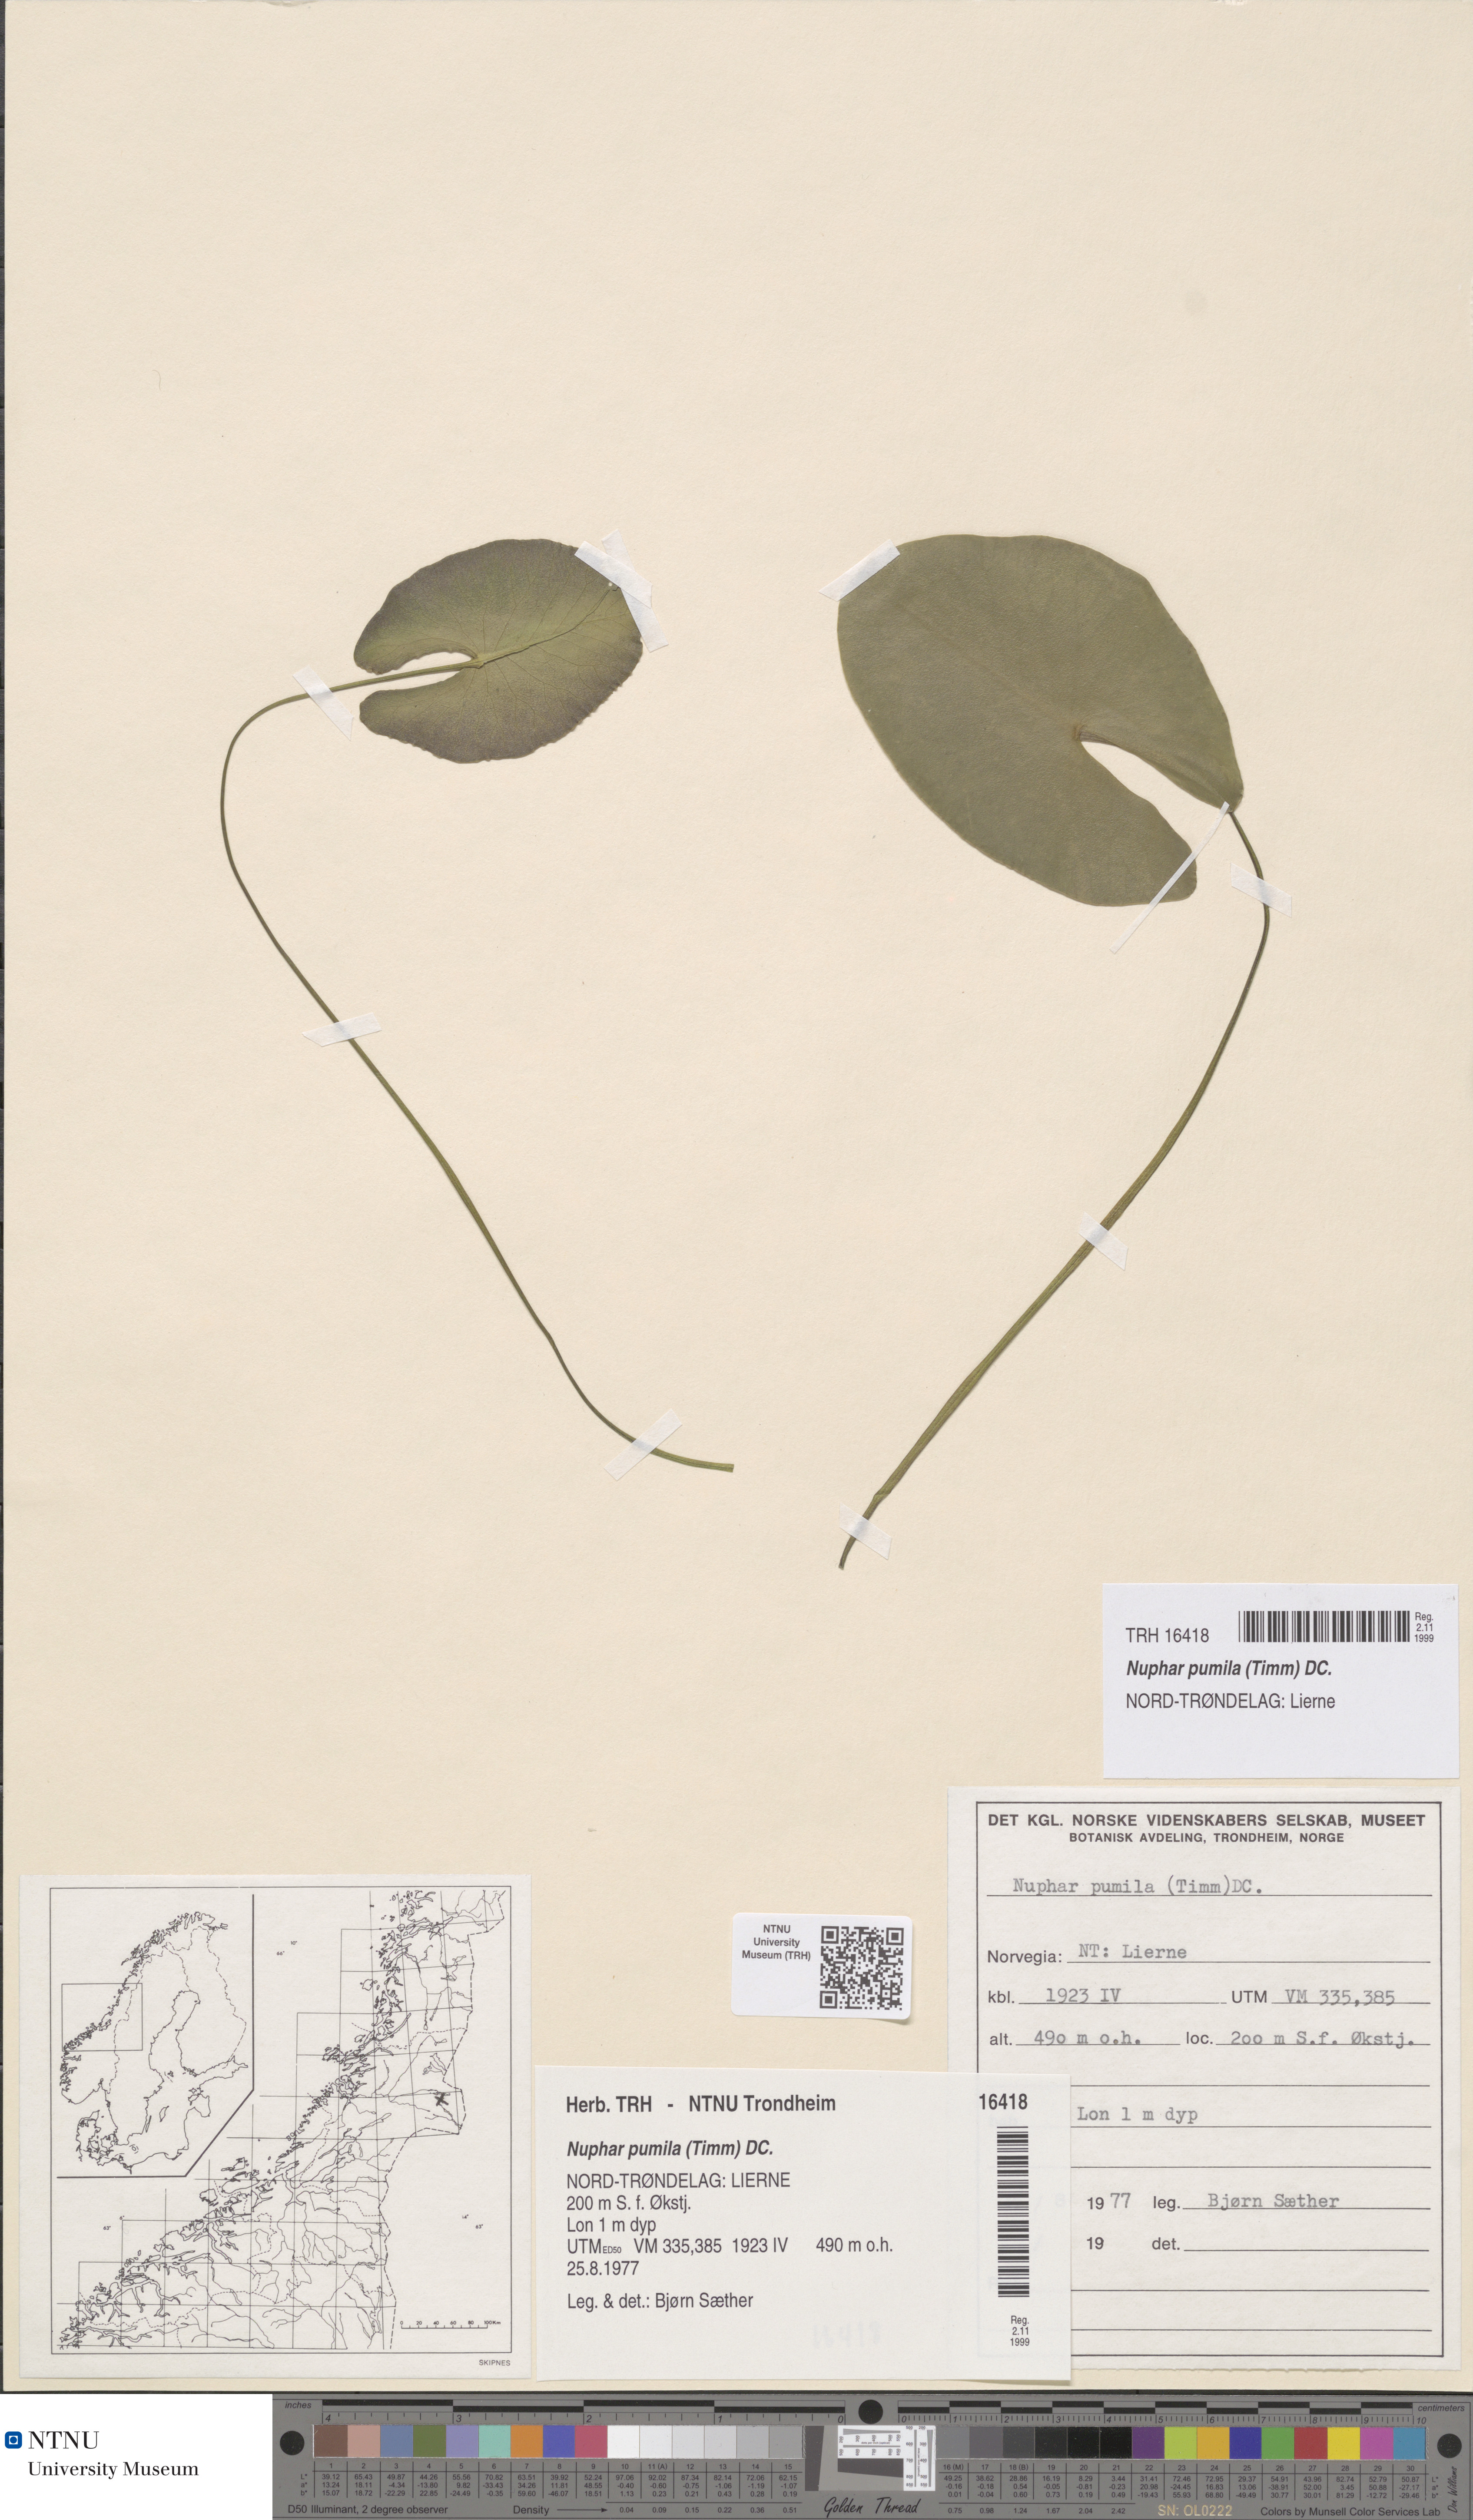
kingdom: Plantae
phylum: Tracheophyta
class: Magnoliopsida
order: Nymphaeales
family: Nymphaeaceae
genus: Nuphar
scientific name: Nuphar pumila
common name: Least water-lily
